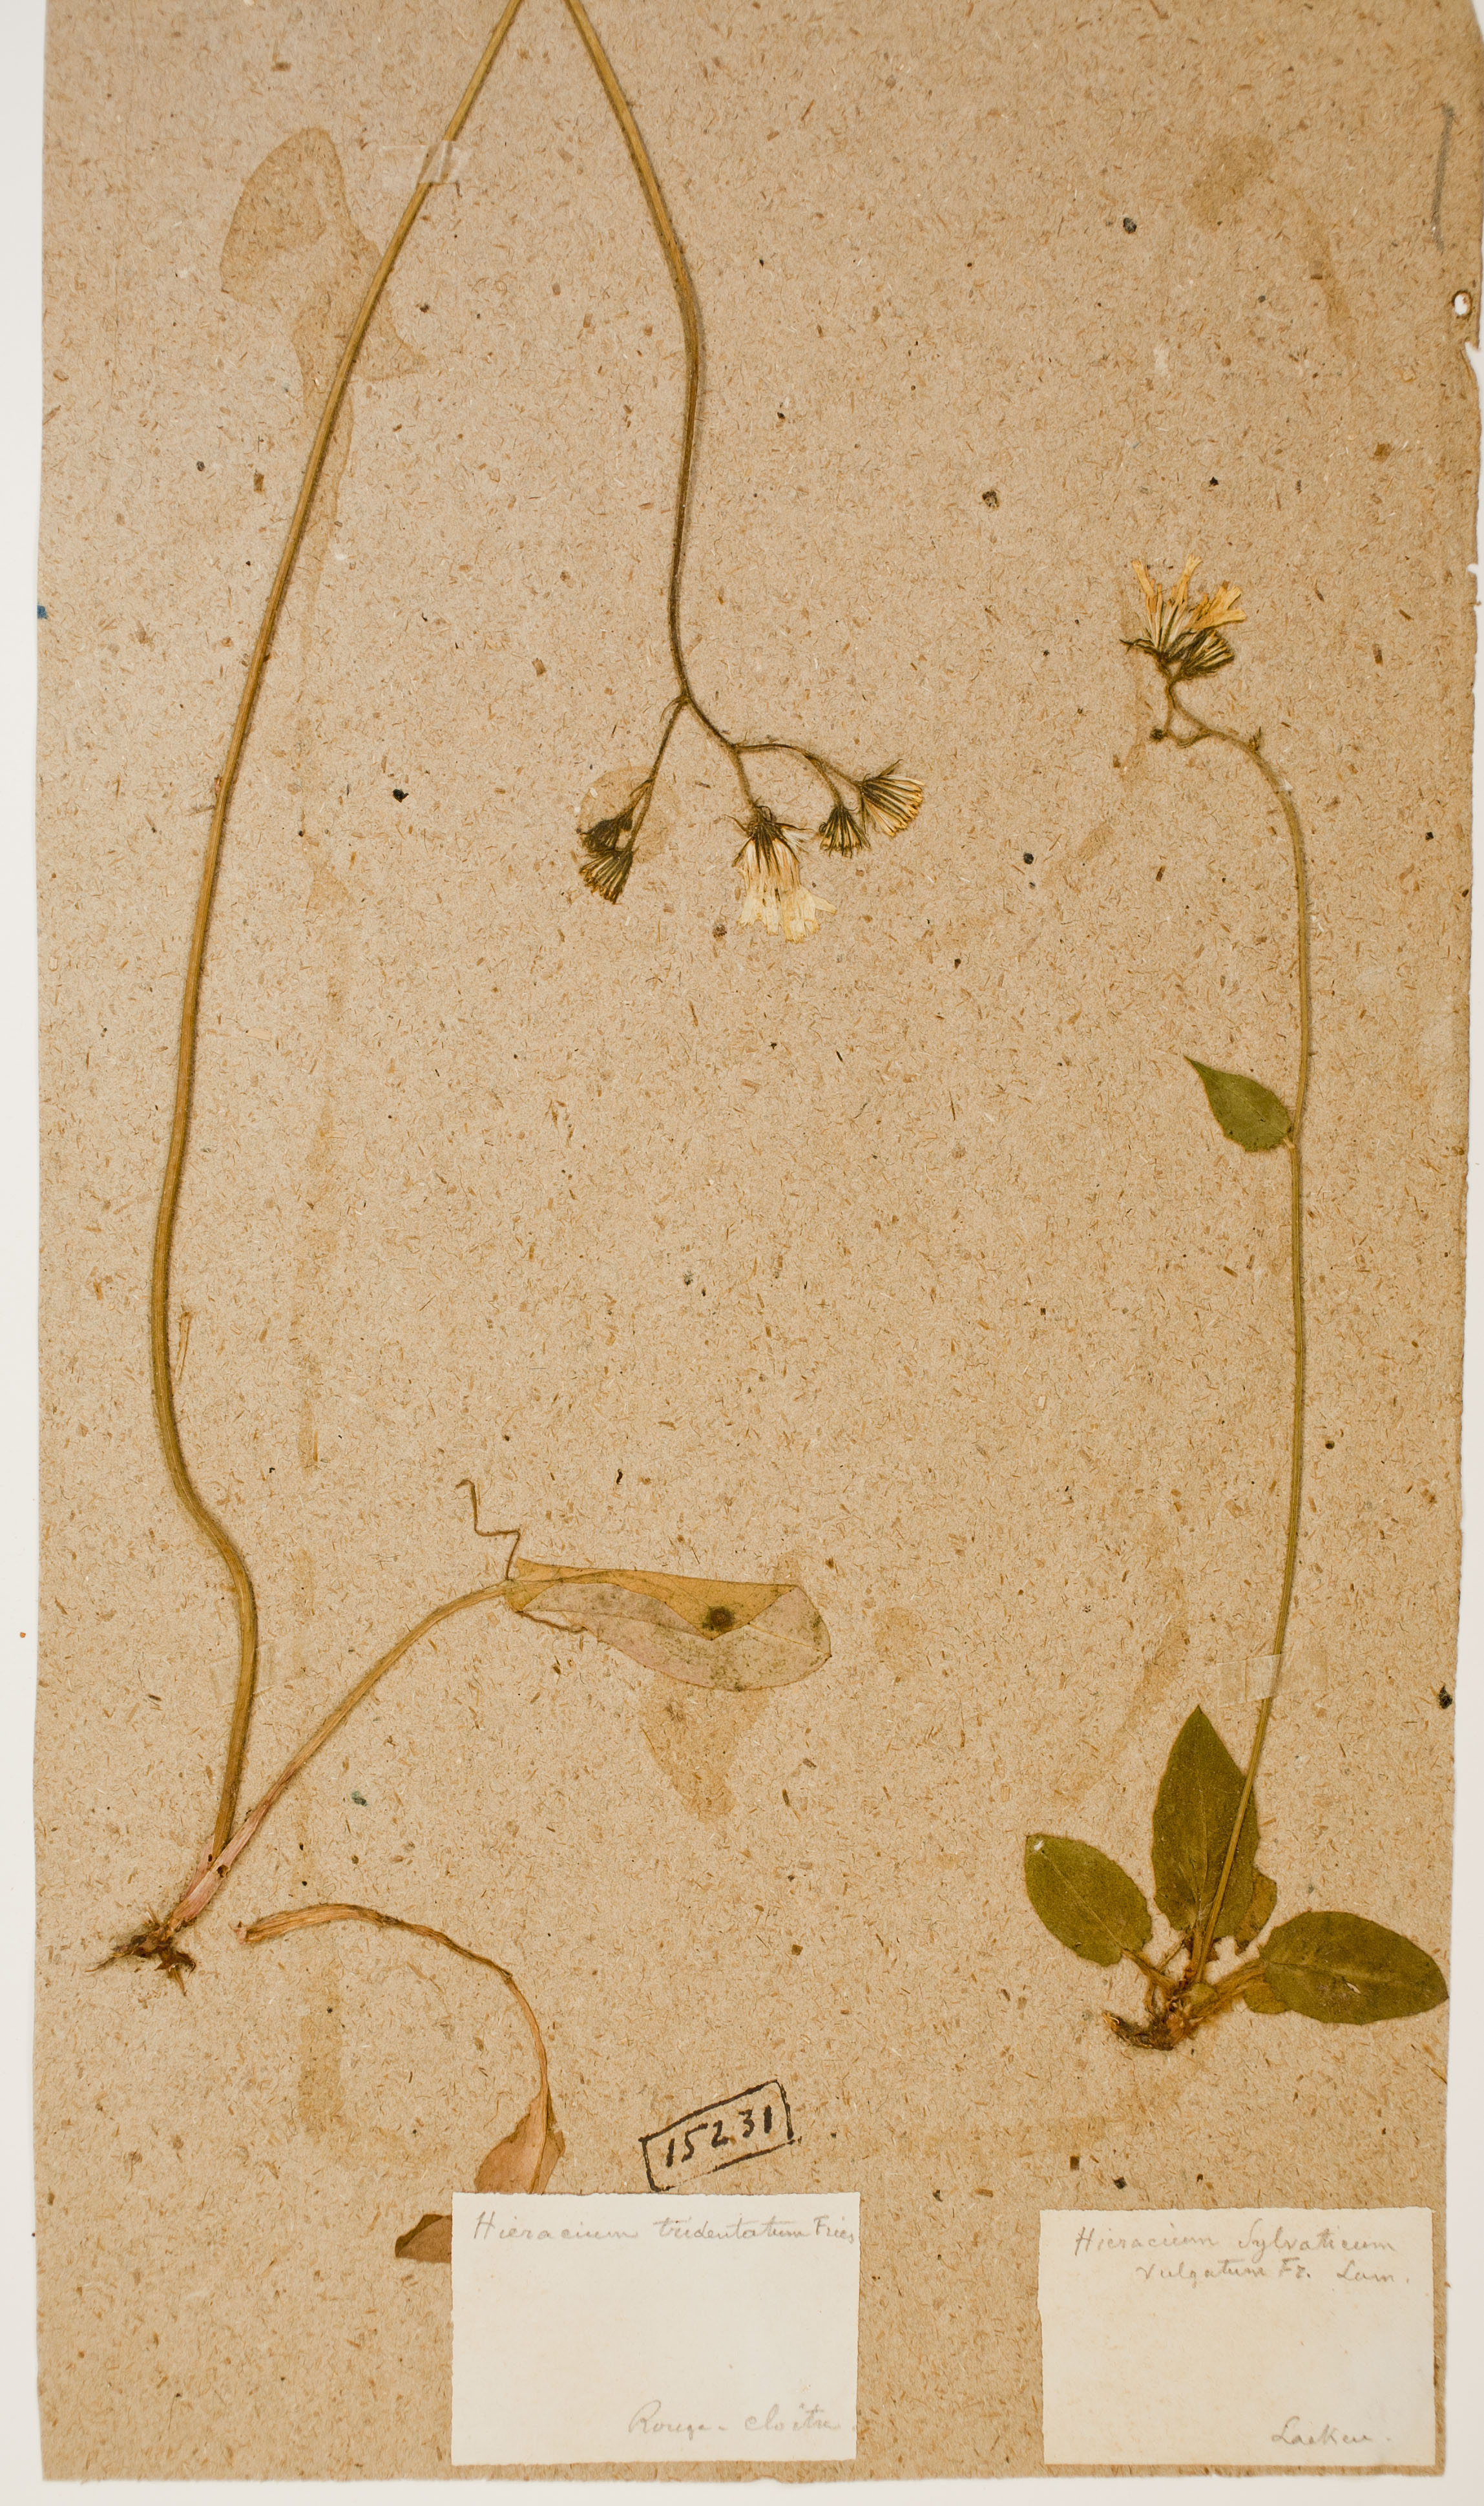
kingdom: Plantae
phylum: Tracheophyta
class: Magnoliopsida
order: Asterales
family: Asteraceae
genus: Hieracium
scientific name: Hieracium laevigatum
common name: Smooth hawkweed
